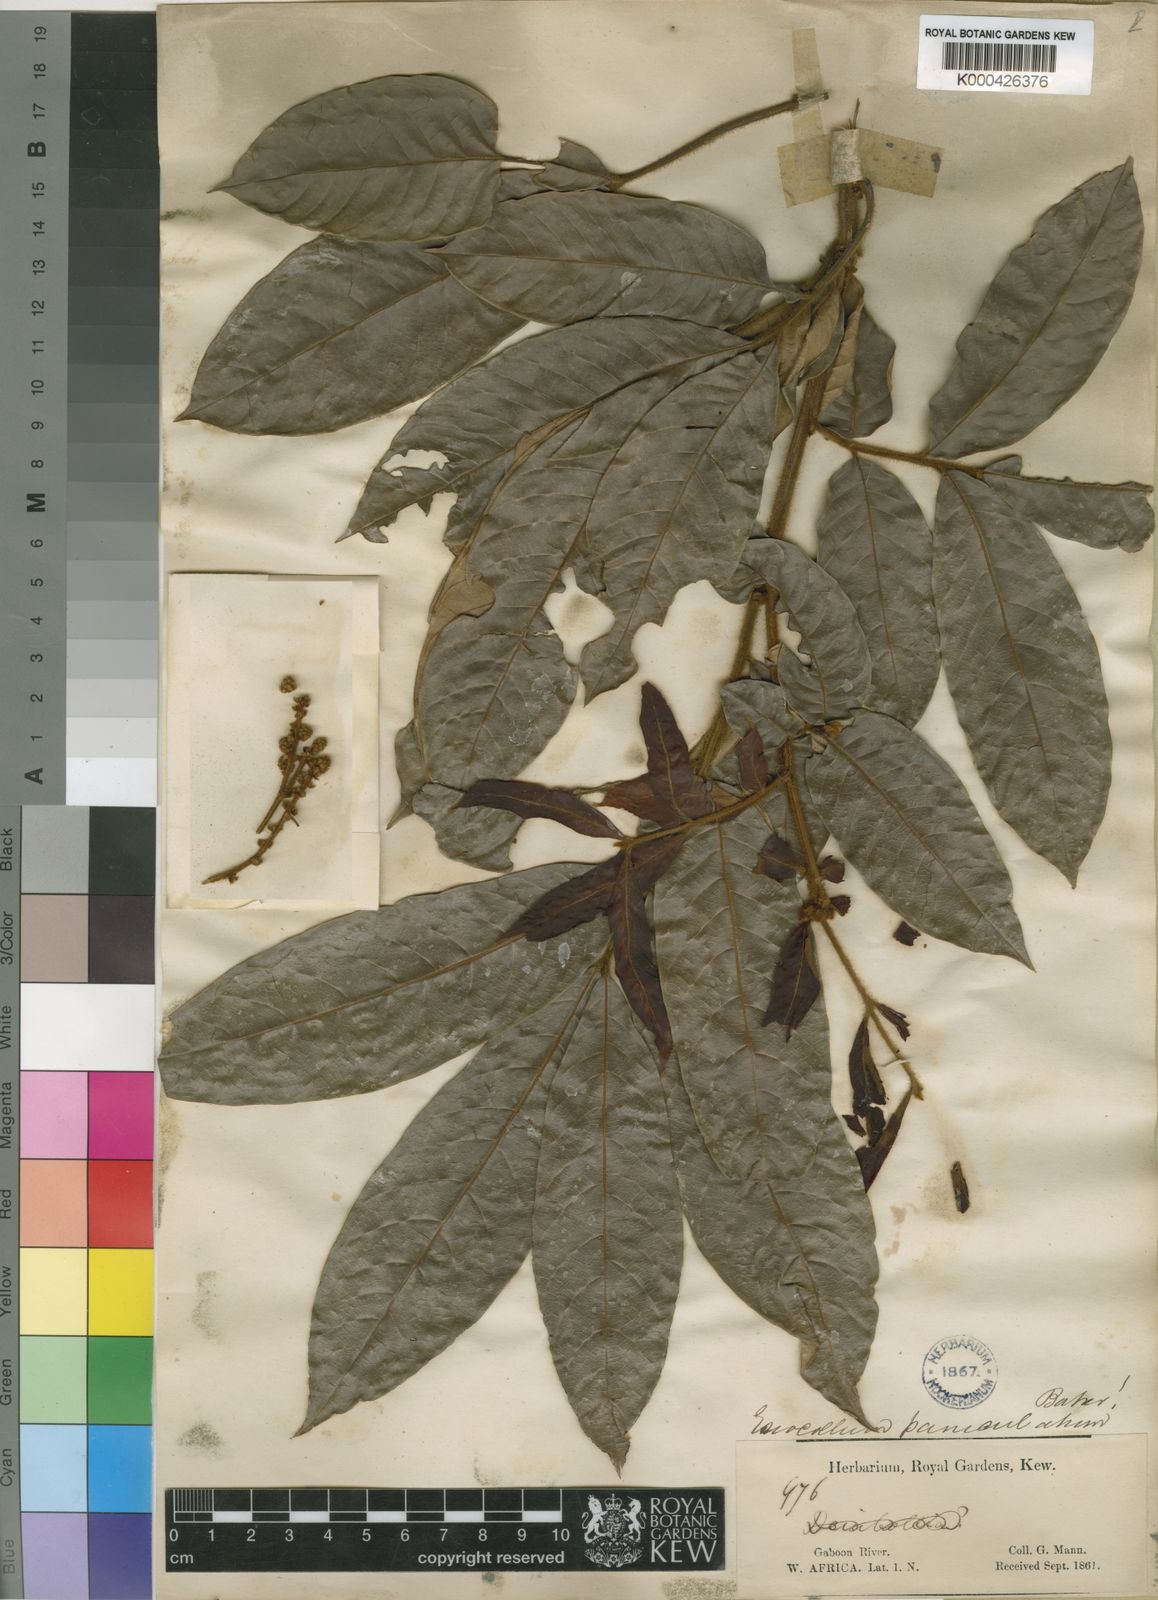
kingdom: Plantae
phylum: Tracheophyta
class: Magnoliopsida
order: Sapindales
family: Sapindaceae
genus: Eriocoelum
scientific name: Eriocoelum paniculatum
